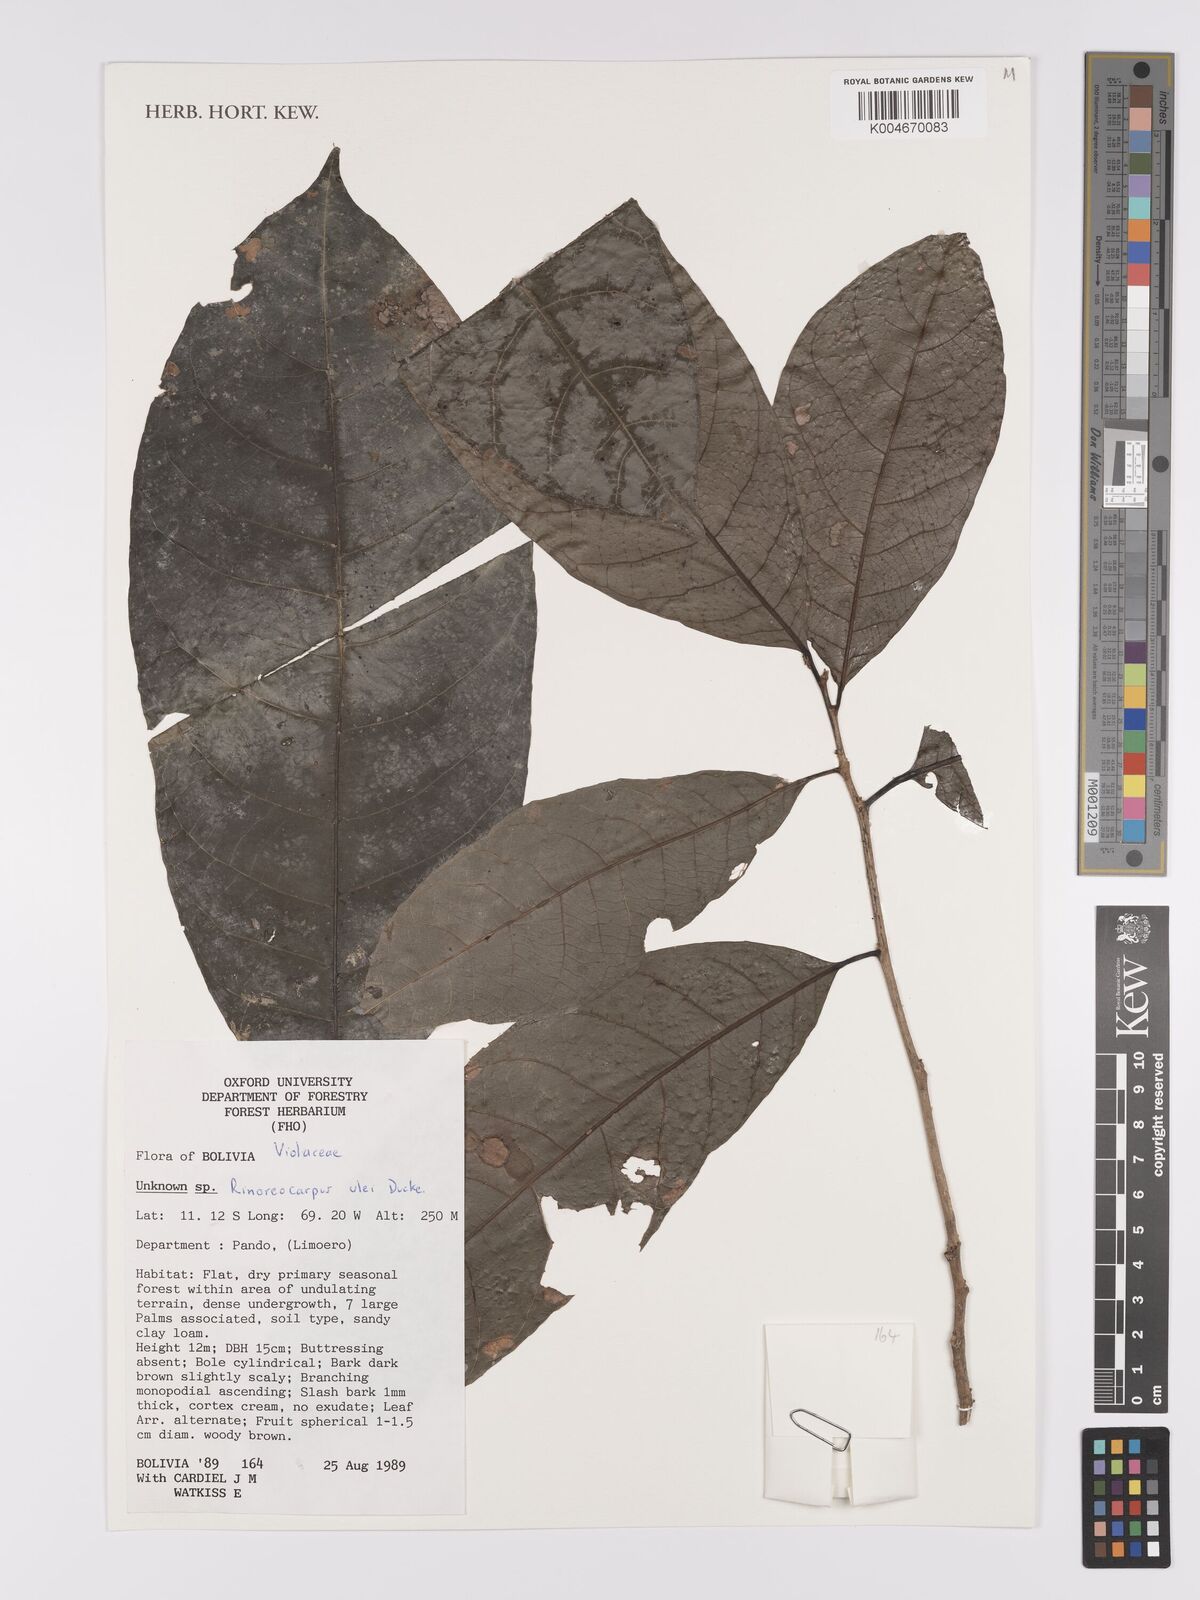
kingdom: Plantae
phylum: Tracheophyta
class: Magnoliopsida
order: Malpighiales
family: Violaceae
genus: Rinoreocarpus
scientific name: Rinoreocarpus ulei
